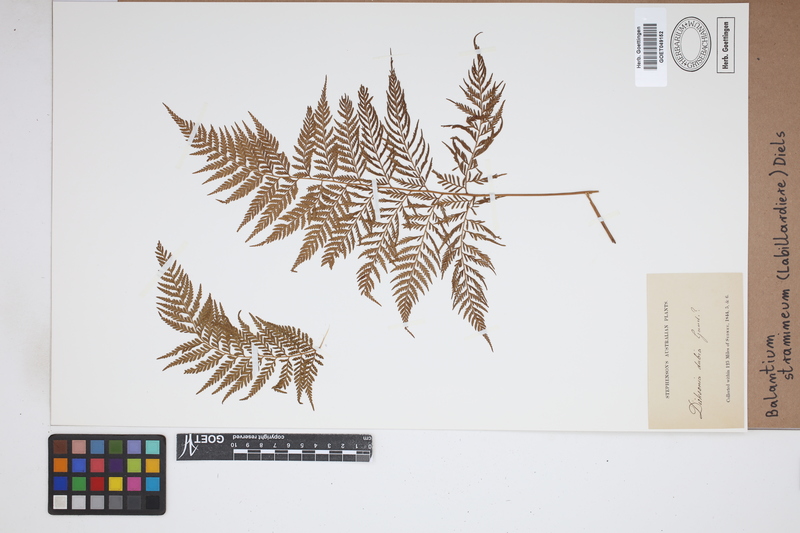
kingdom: Plantae
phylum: Tracheophyta
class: Polypodiopsida
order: Cyatheales
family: Dicksoniaceae
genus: Calochlaena
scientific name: Calochlaena straminea
